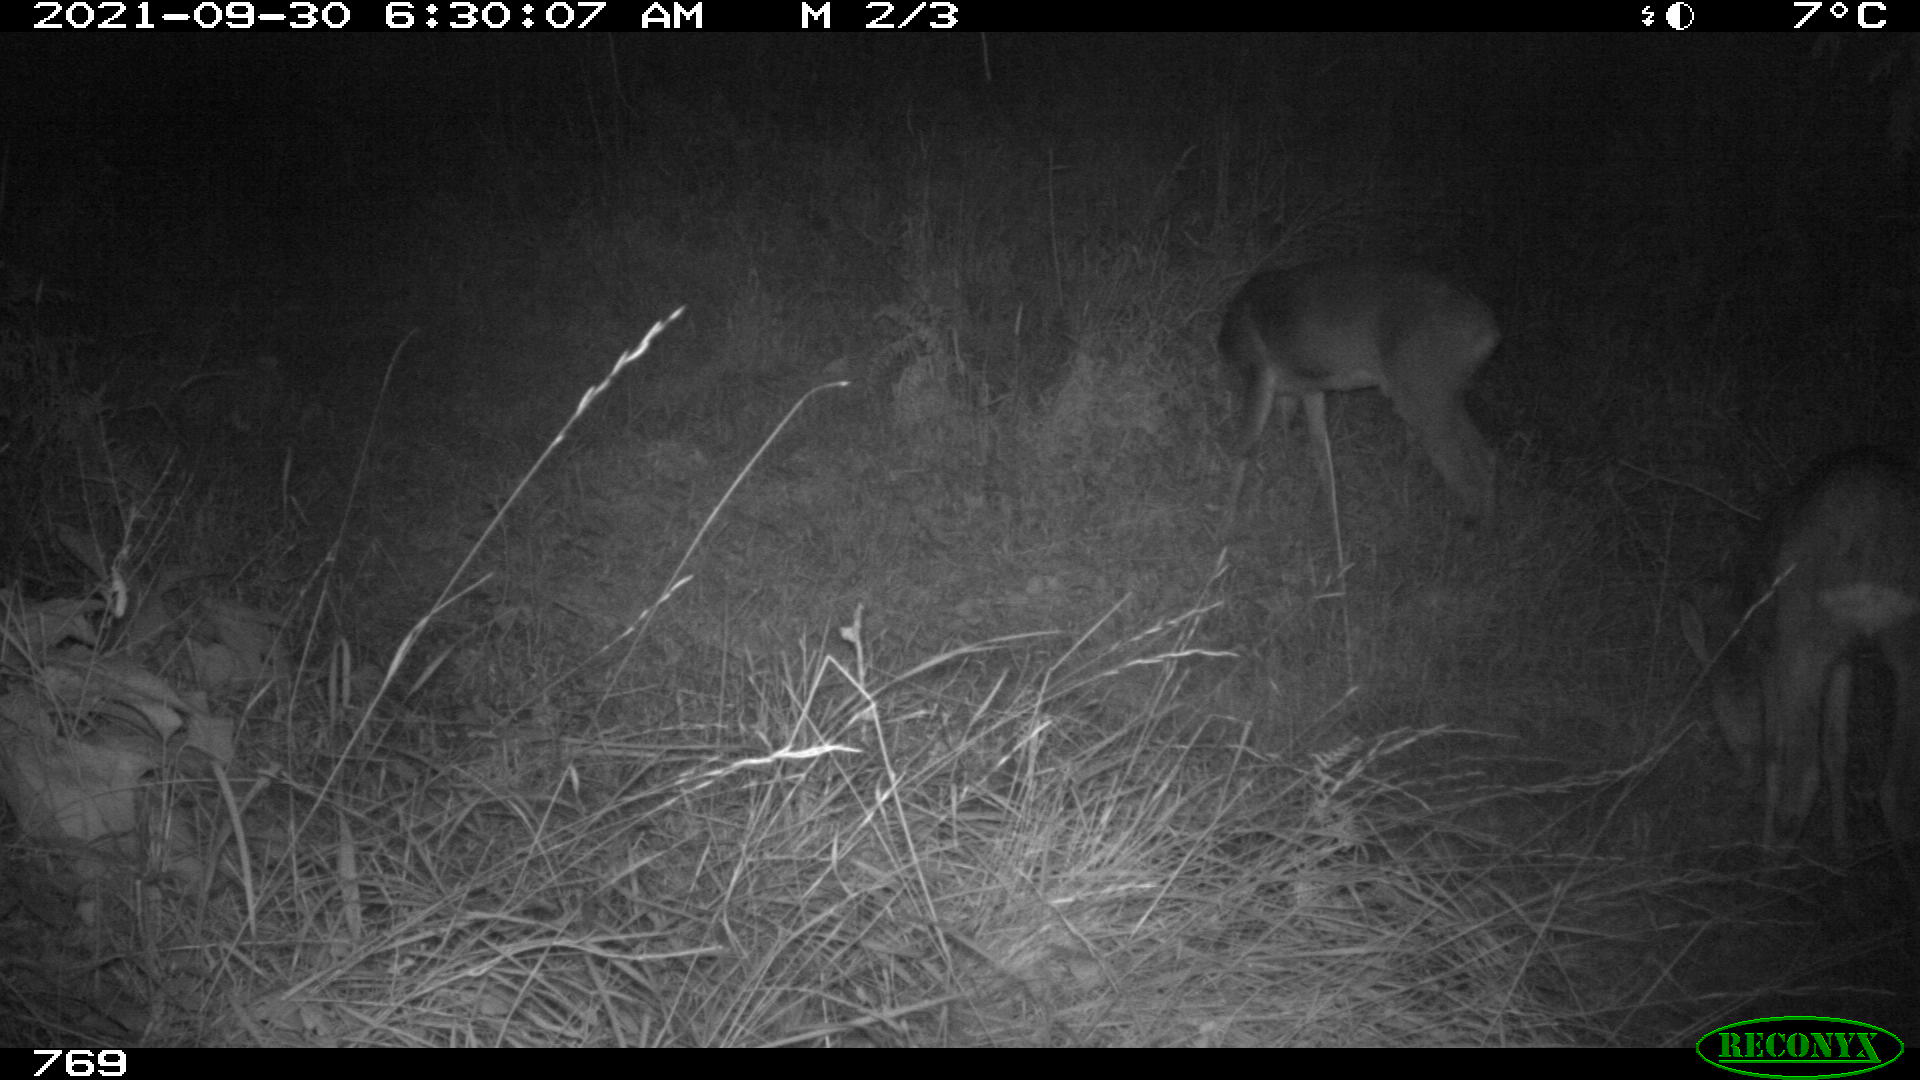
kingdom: Animalia
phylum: Chordata
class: Mammalia
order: Artiodactyla
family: Cervidae
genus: Capreolus
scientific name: Capreolus capreolus
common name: Western roe deer
